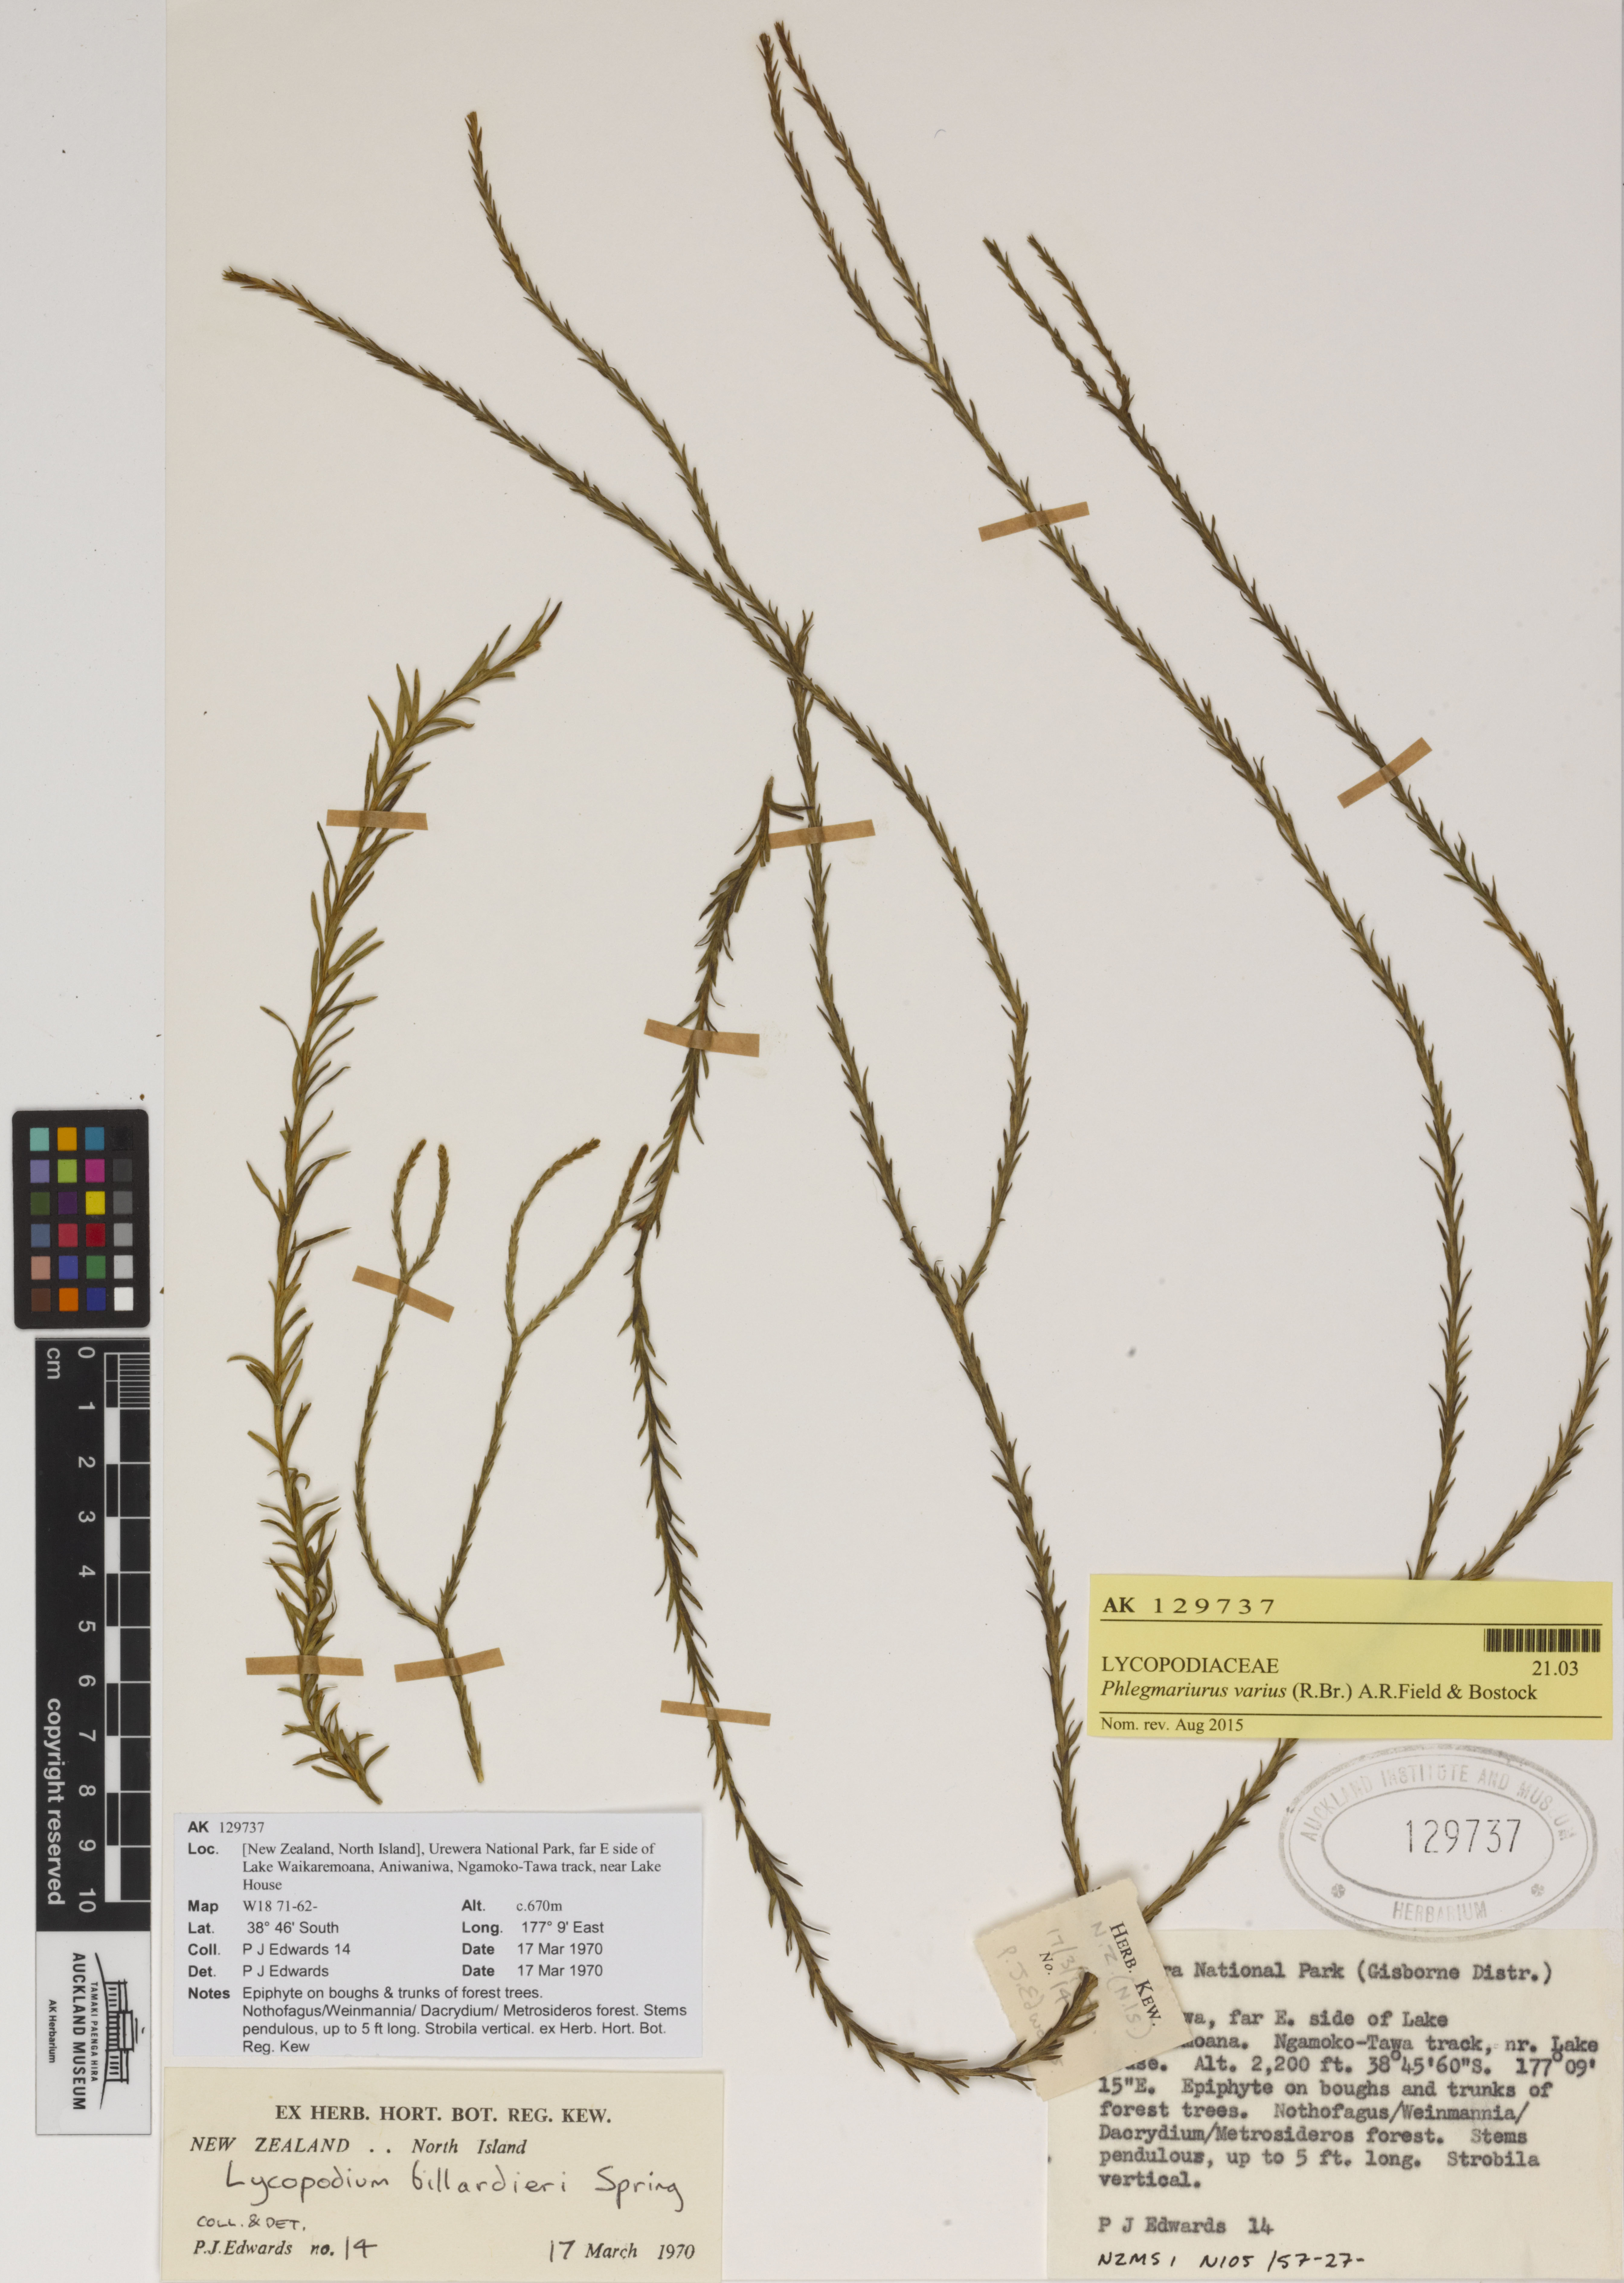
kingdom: Plantae
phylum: Tracheophyta
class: Lycopodiopsida
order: Lycopodiales
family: Lycopodiaceae
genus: Phlegmariurus
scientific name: Phlegmariurus billardierei
